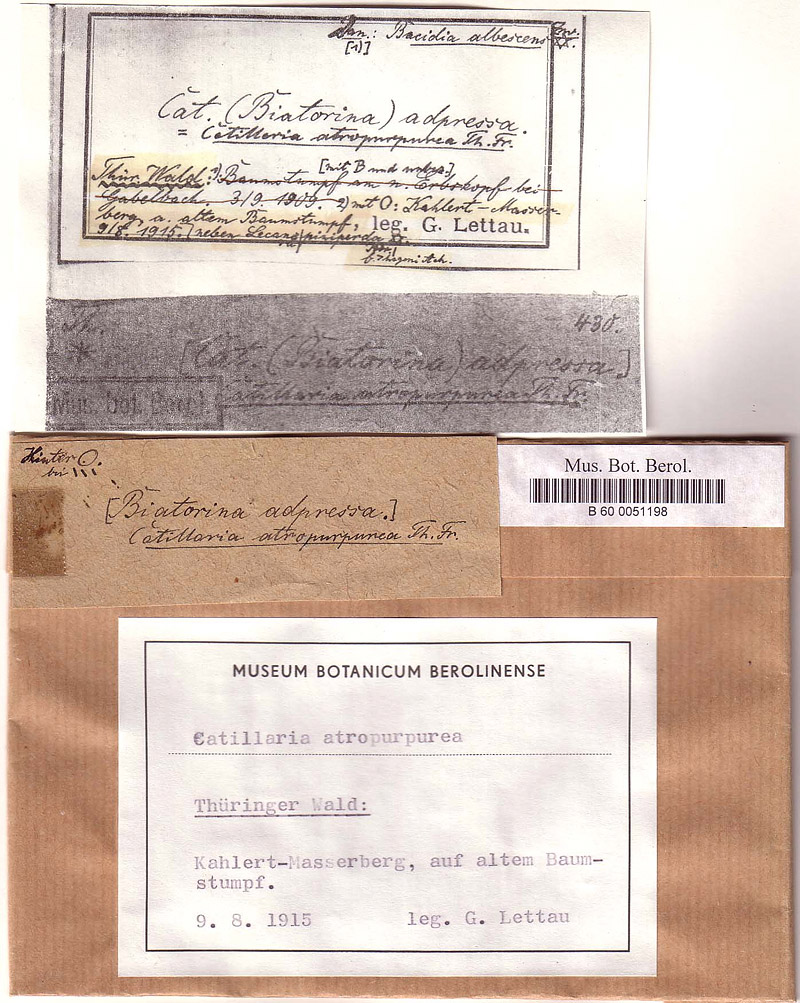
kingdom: Fungi
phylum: Ascomycota
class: Lecanoromycetes
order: Lecanorales
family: Lecanoraceae
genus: Lecanora
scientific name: Lecanora albellula
